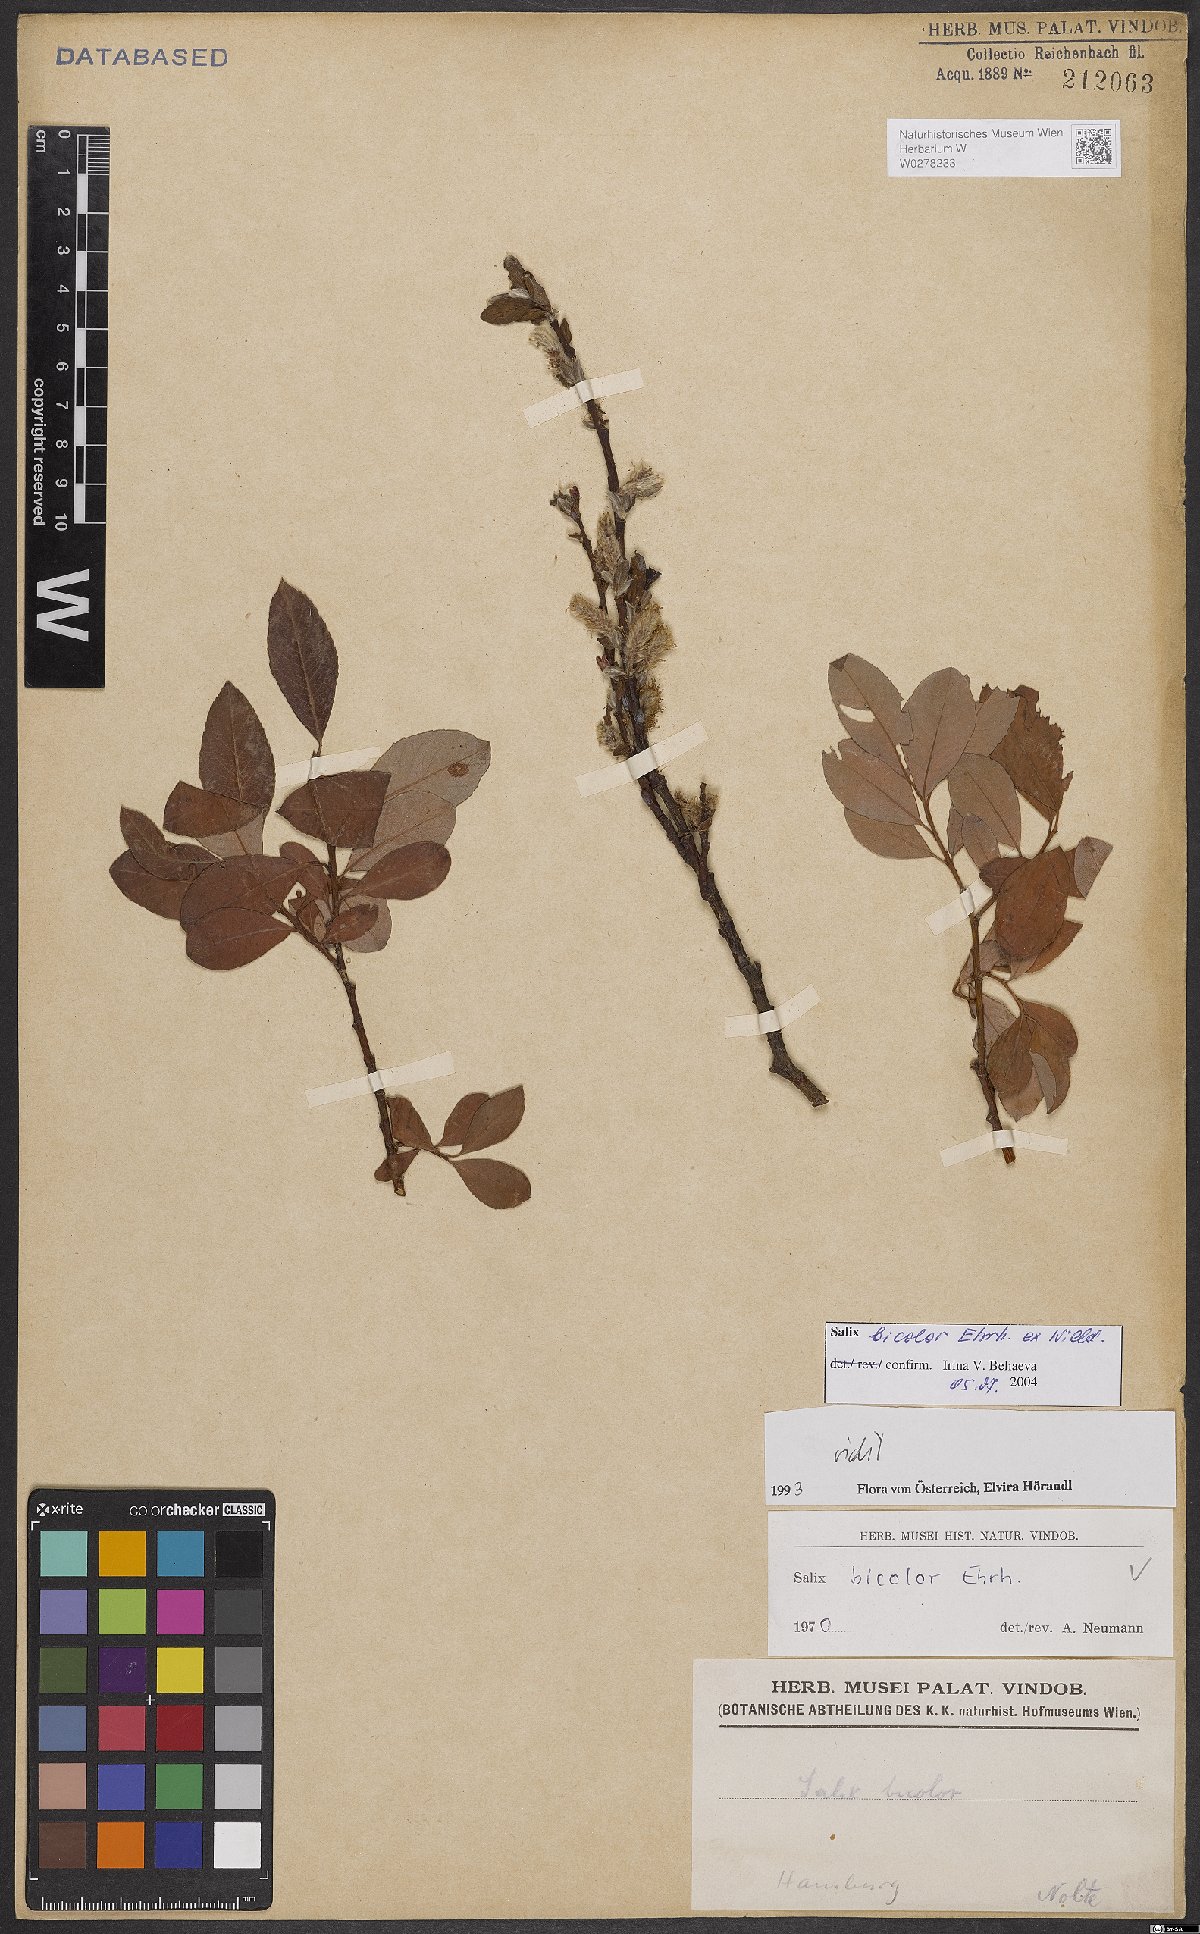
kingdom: Plantae
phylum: Tracheophyta
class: Magnoliopsida
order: Malpighiales
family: Salicaceae
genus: Salix
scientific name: Salix bicolor
